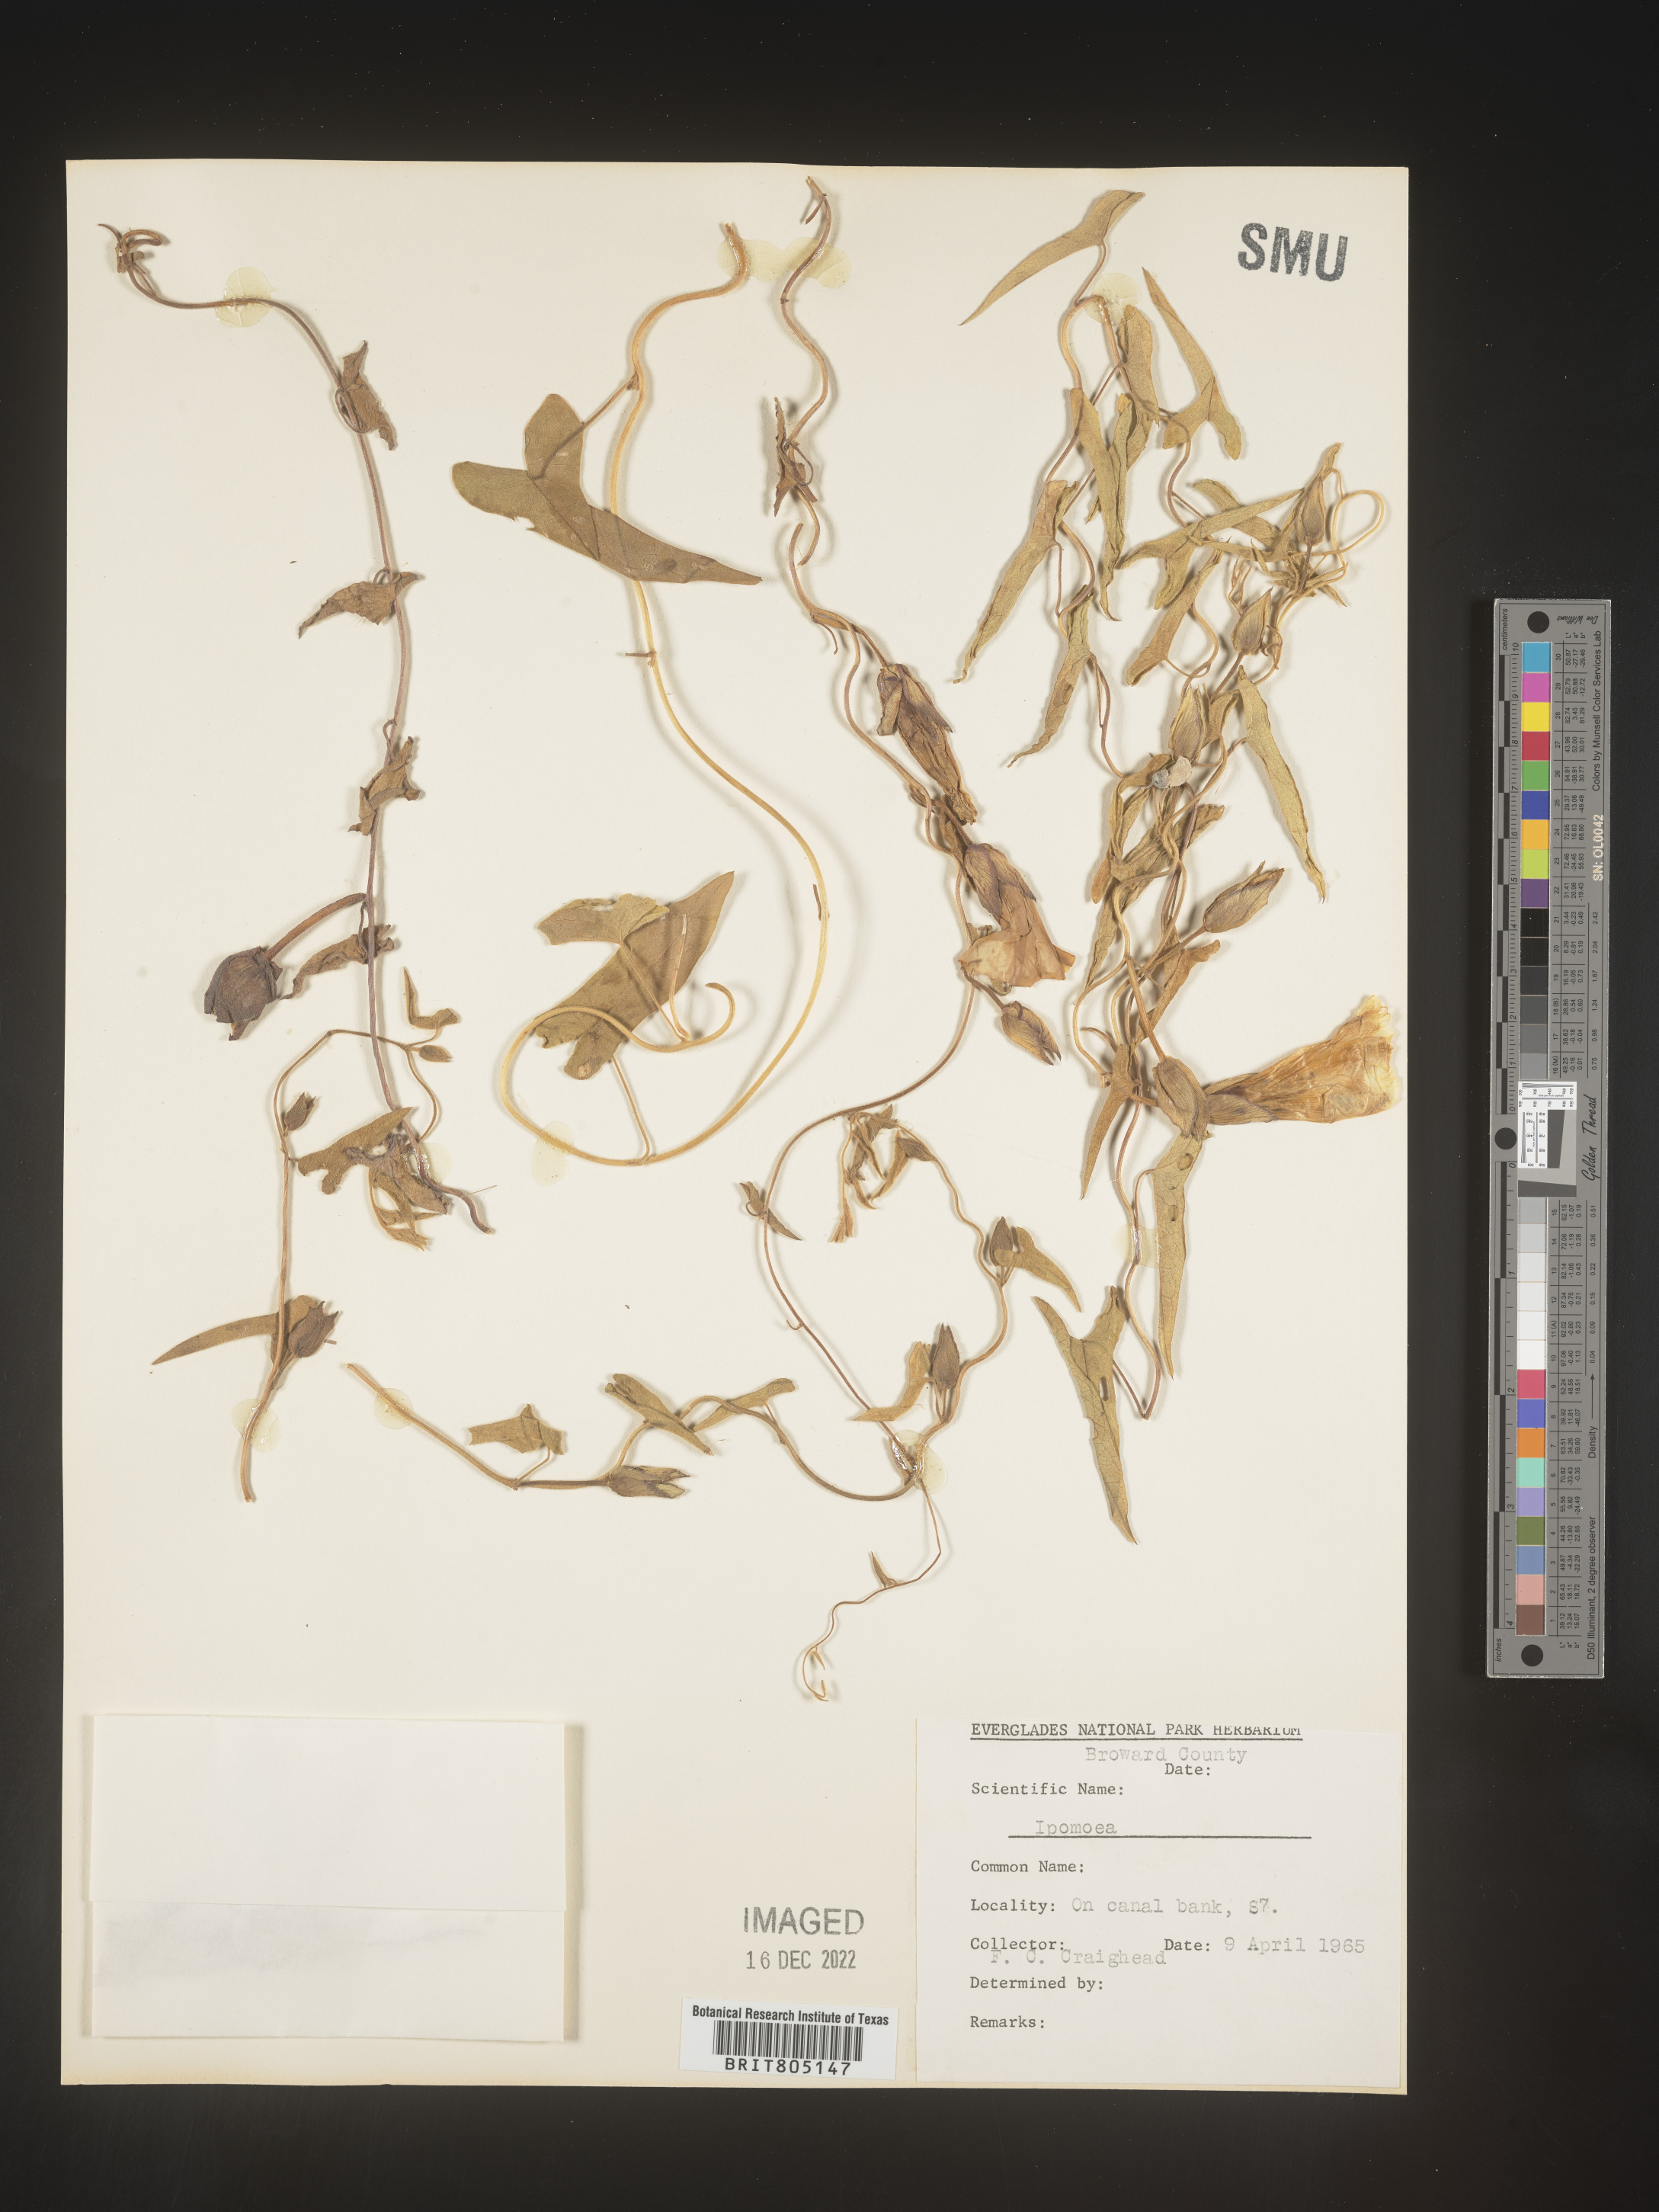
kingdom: Plantae
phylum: Tracheophyta
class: Magnoliopsida
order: Solanales
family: Convolvulaceae
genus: Ipomoea
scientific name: Ipomoea
